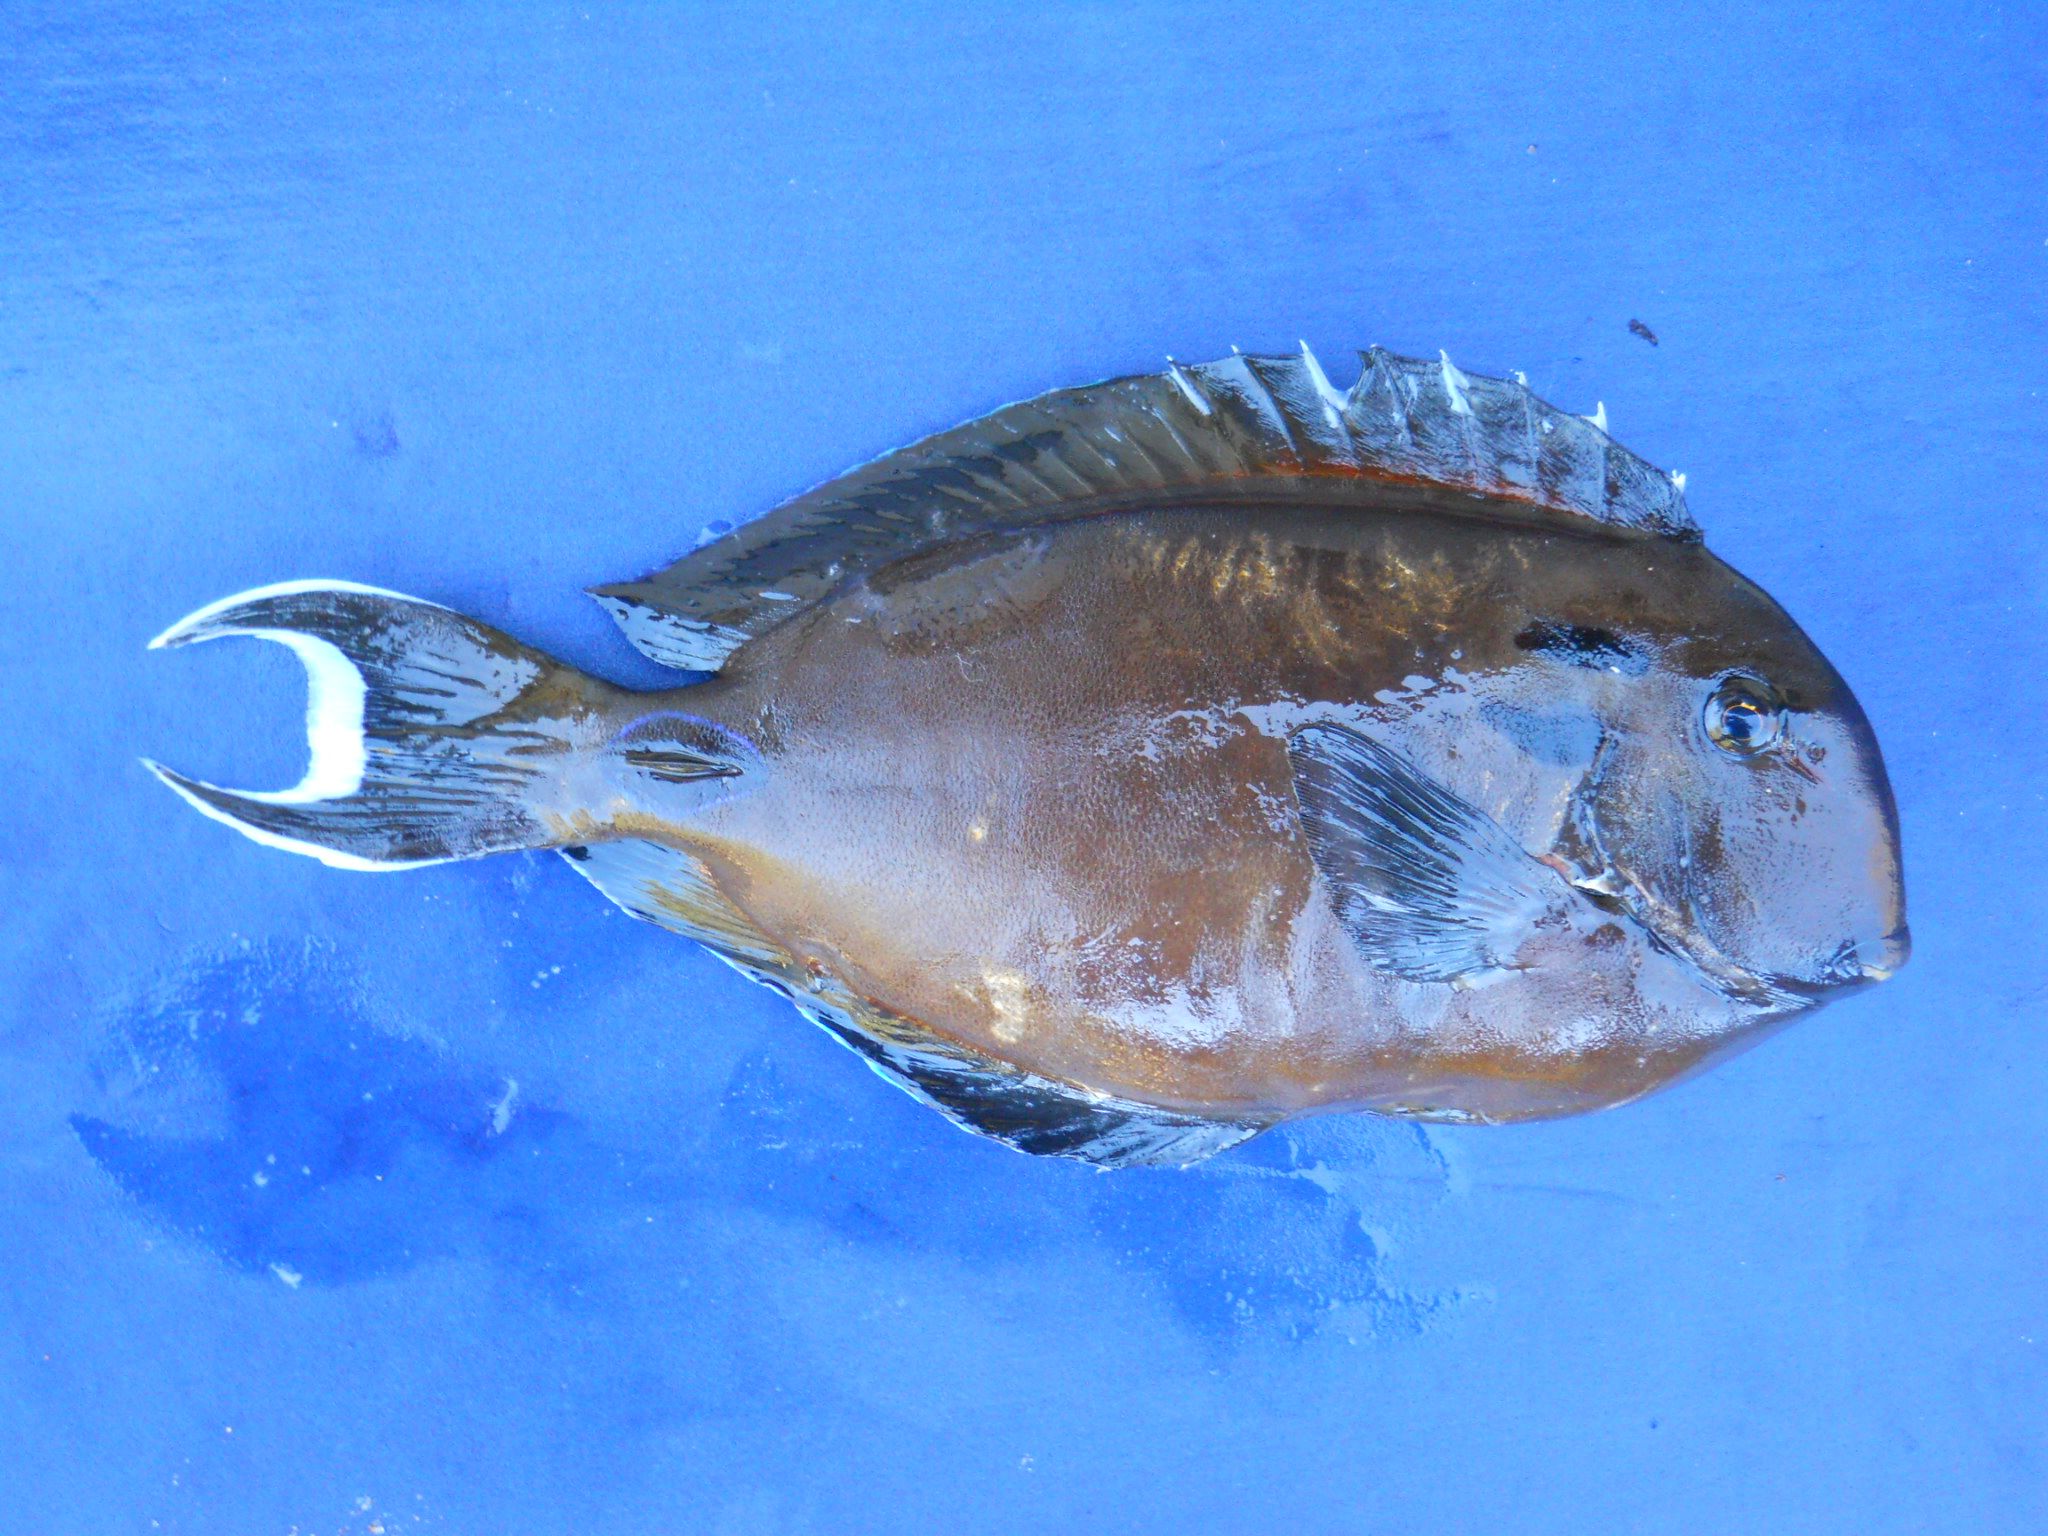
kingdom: Animalia
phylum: Chordata
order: Perciformes
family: Acanthuridae
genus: Acanthurus
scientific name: Acanthurus tennentii
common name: Doubleband surgeonfish
